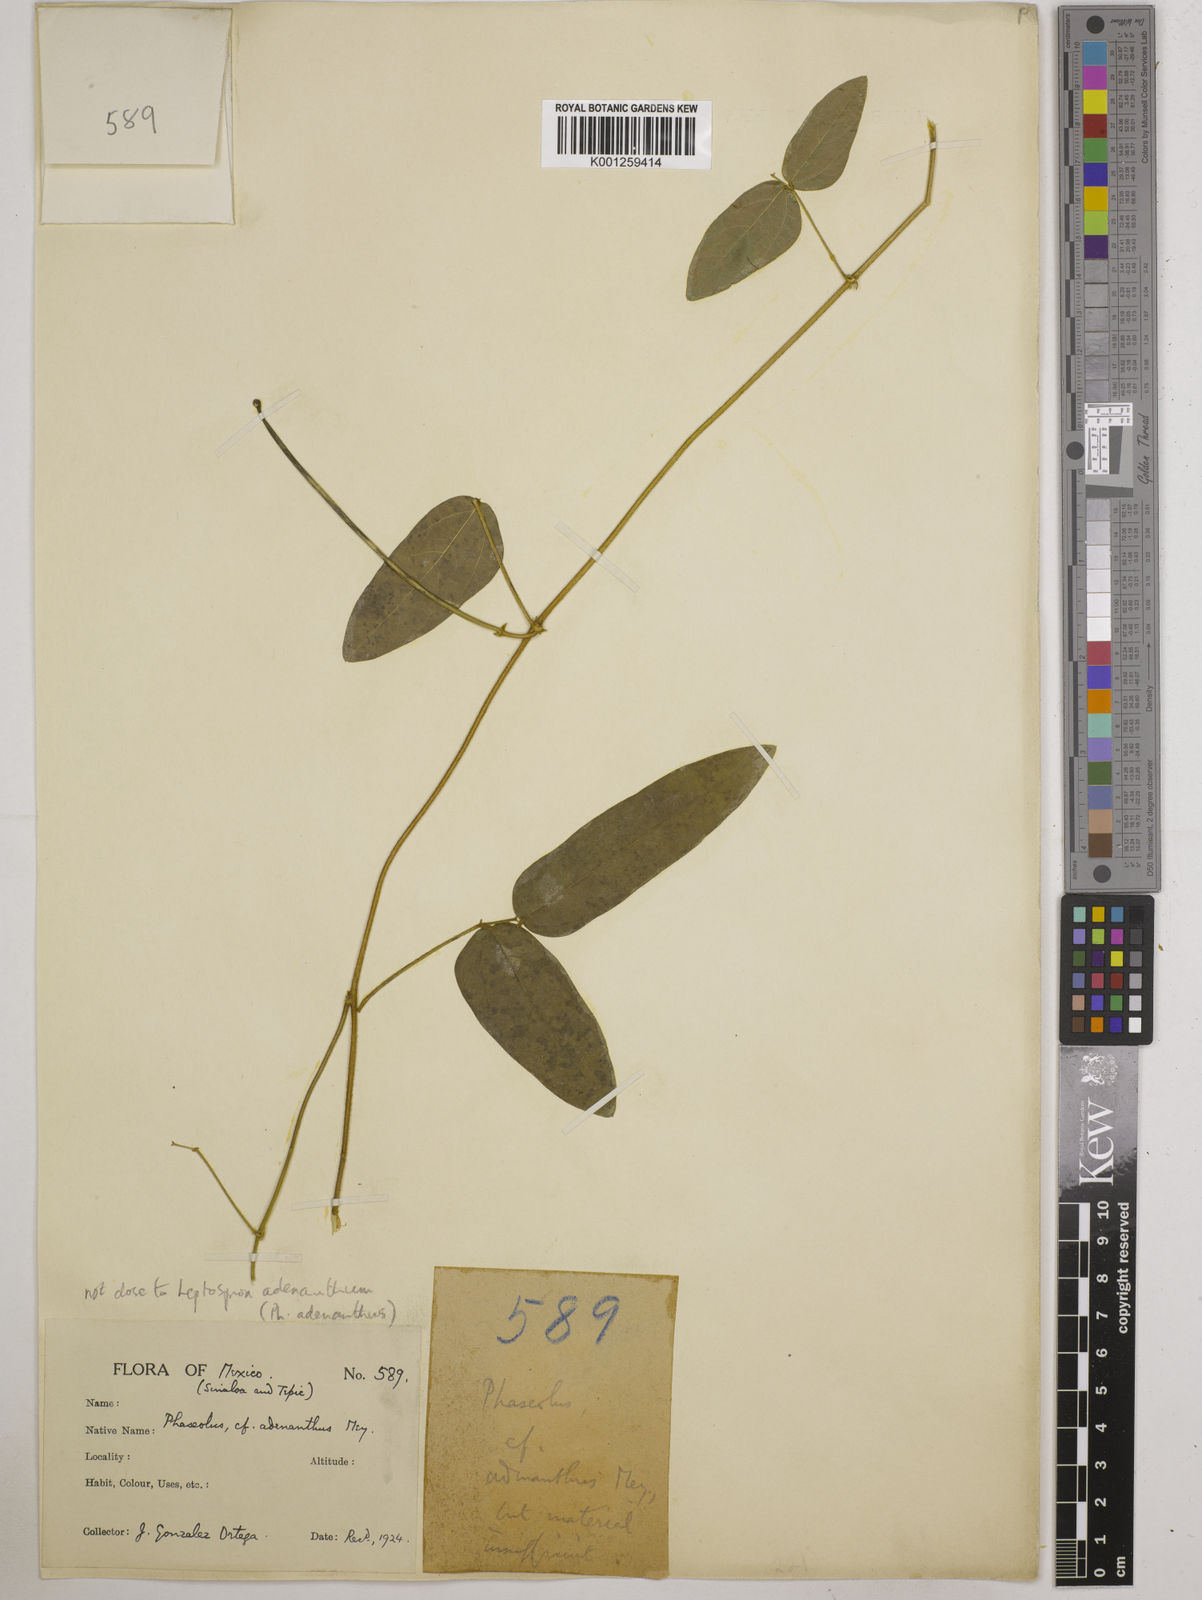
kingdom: Plantae
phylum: Tracheophyta
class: Magnoliopsida
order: Fabales
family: Fabaceae
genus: Vigna
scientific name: Vigna
